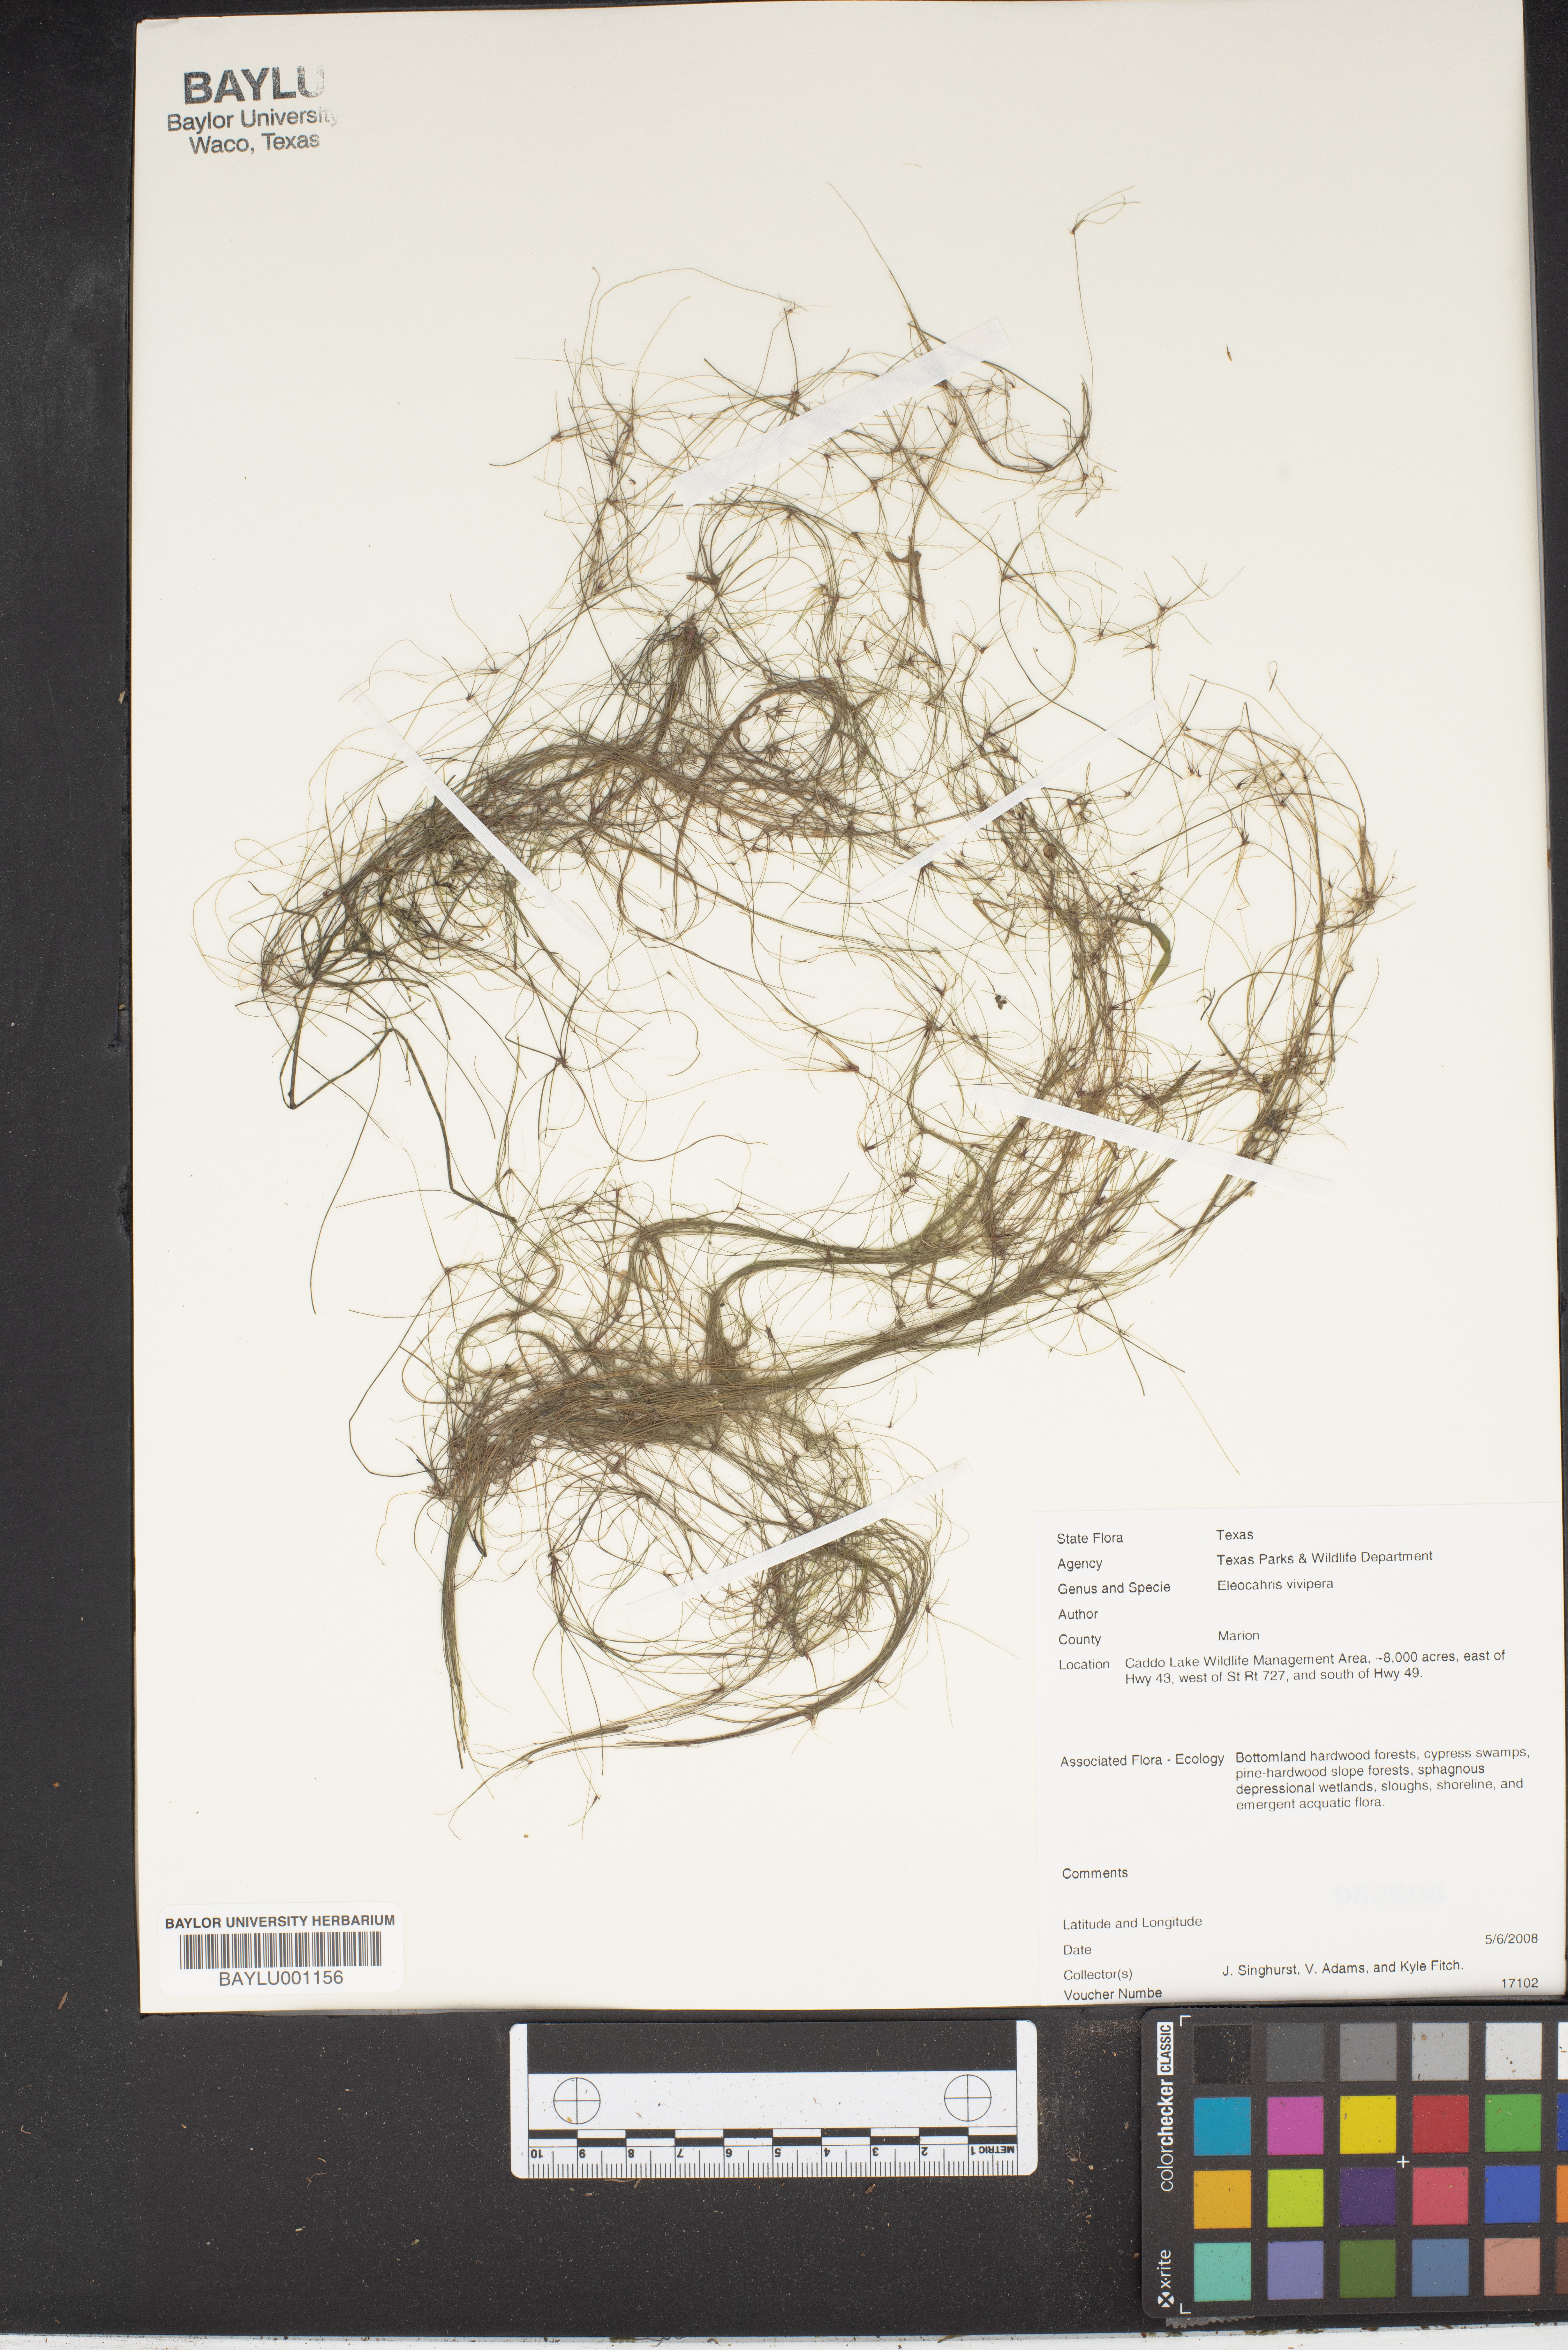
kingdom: Plantae
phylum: Tracheophyta
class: Liliopsida
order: Poales
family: Cyperaceae
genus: Eleocharis
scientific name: Eleocharis vivipara
